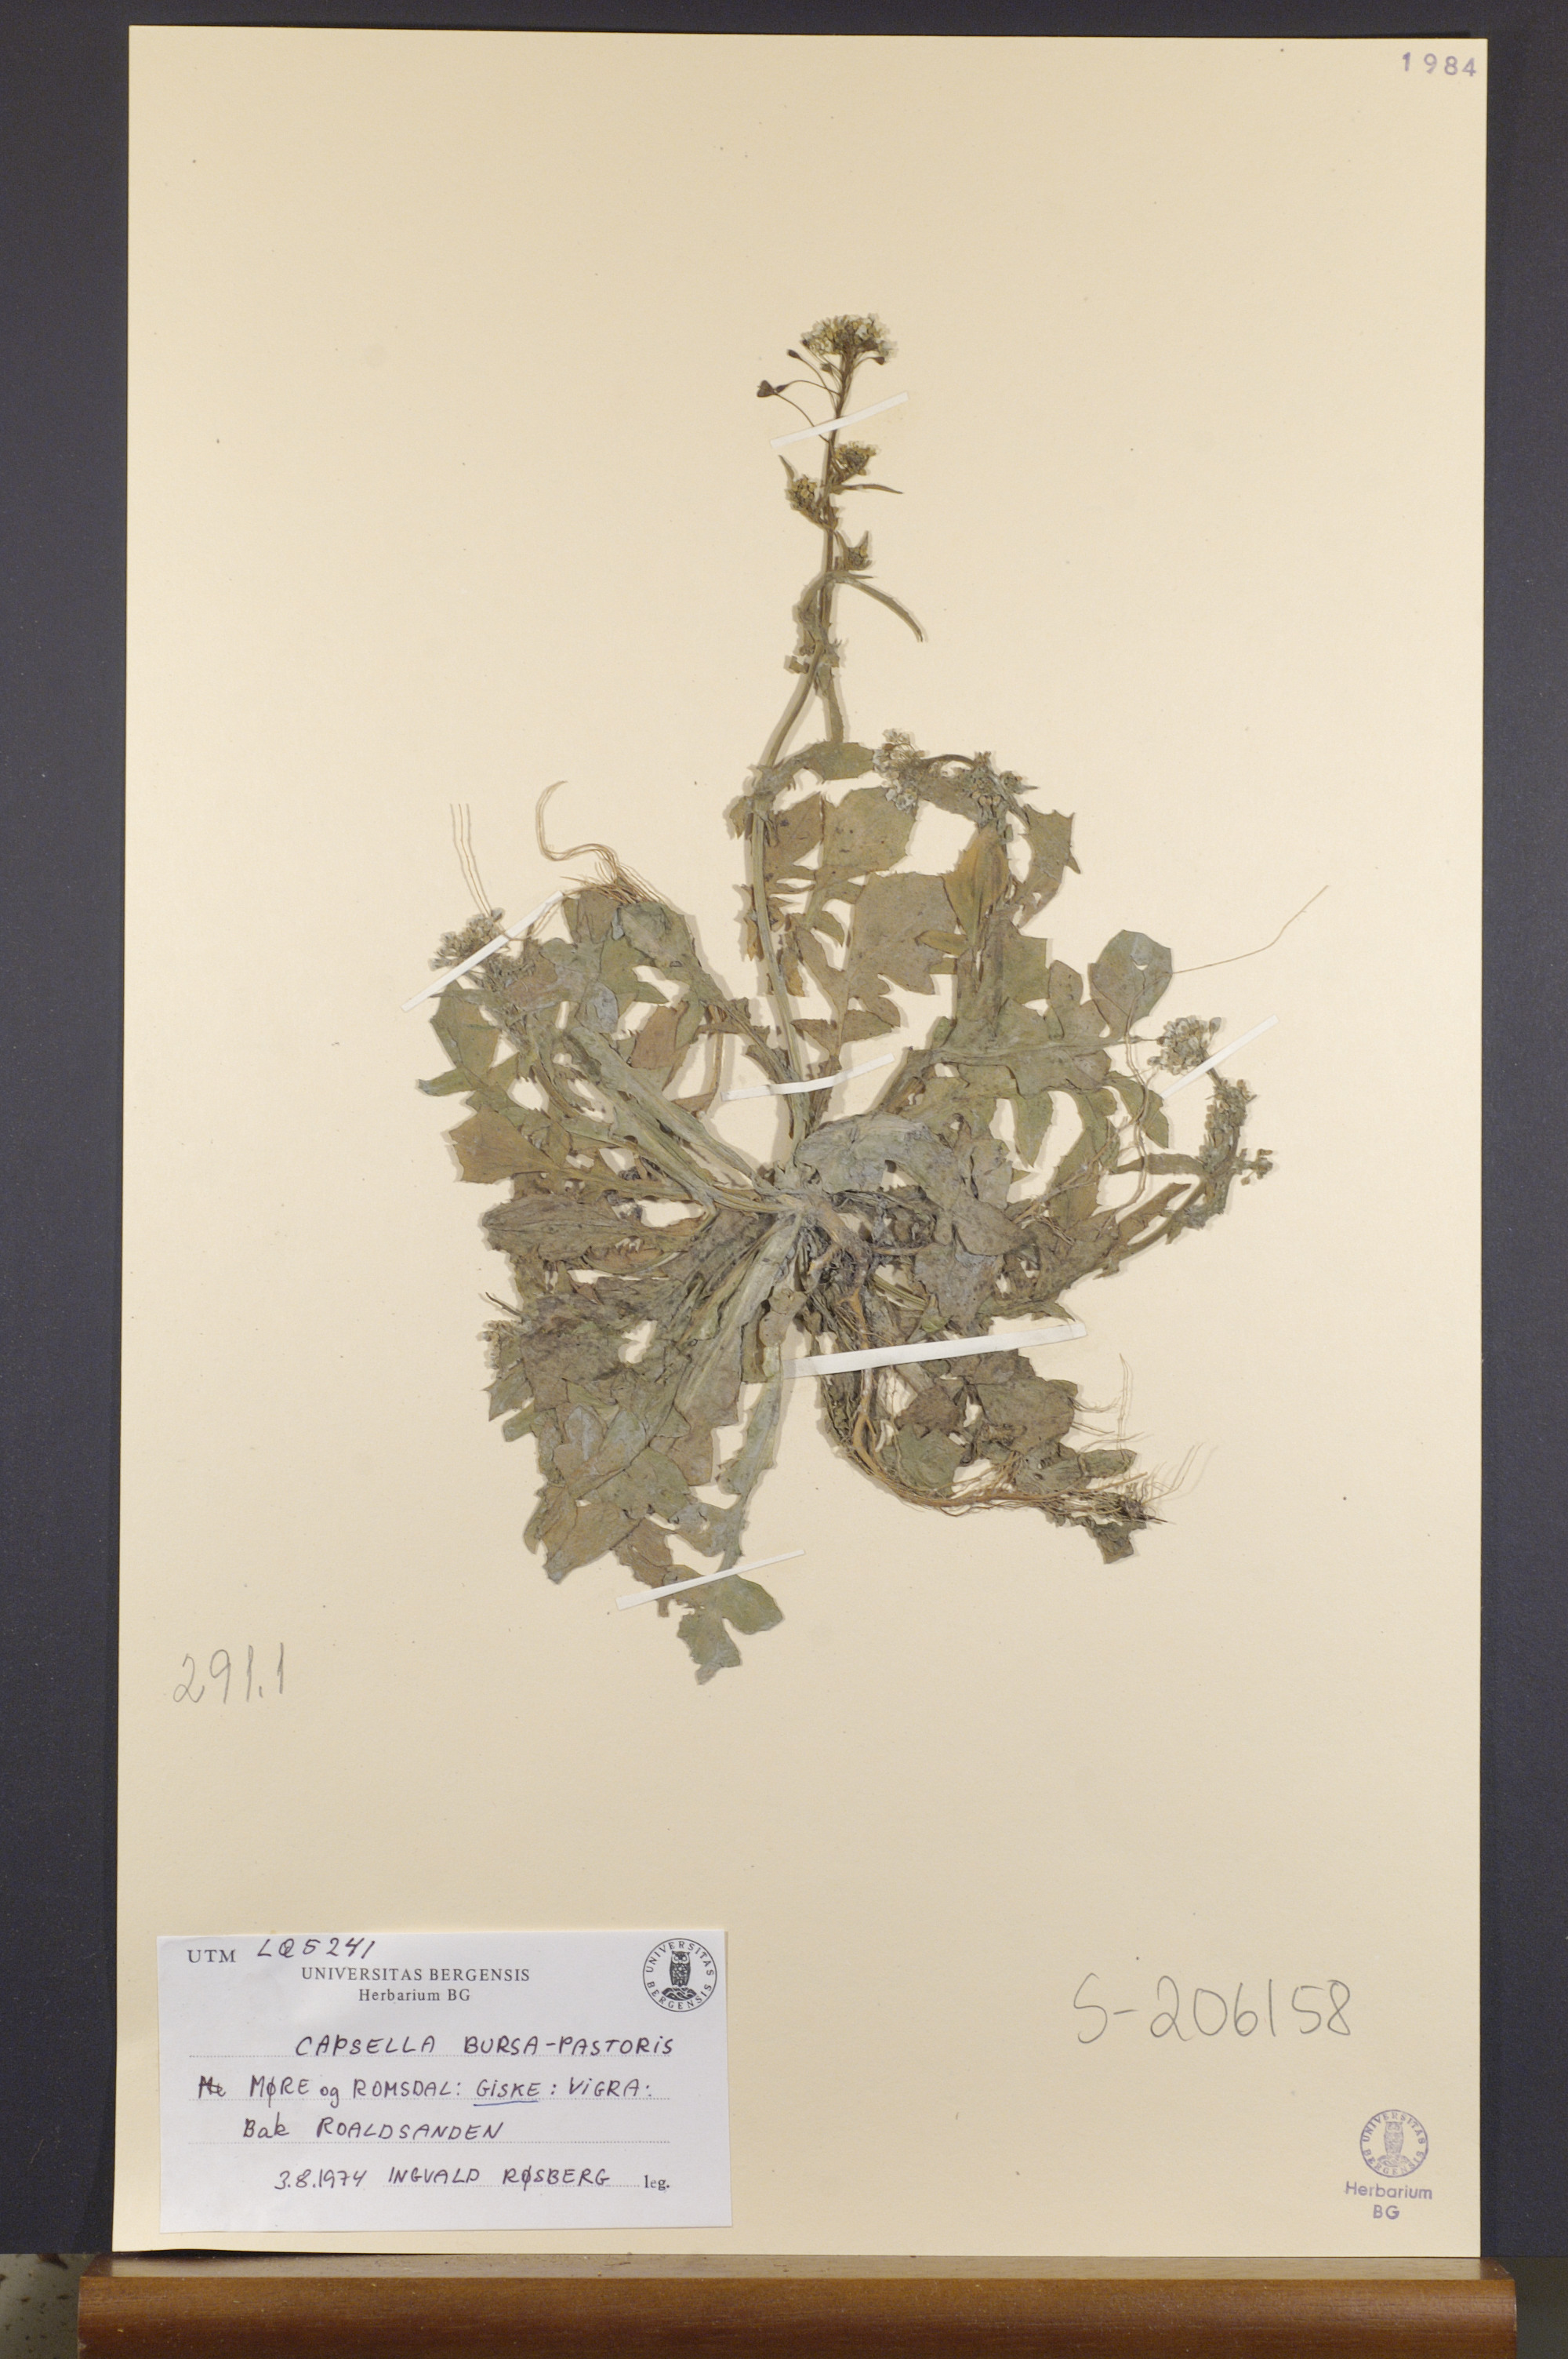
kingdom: Plantae
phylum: Tracheophyta
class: Magnoliopsida
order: Brassicales
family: Brassicaceae
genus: Capsella
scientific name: Capsella bursa-pastoris
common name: Shepherd's purse
